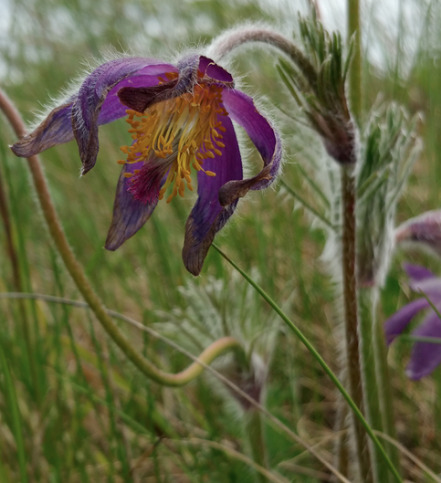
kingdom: Plantae
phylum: Tracheophyta
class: Magnoliopsida
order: Ranunculales
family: Ranunculaceae
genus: Pulsatilla
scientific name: Pulsatilla vulgaris
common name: Opret kobjælde
